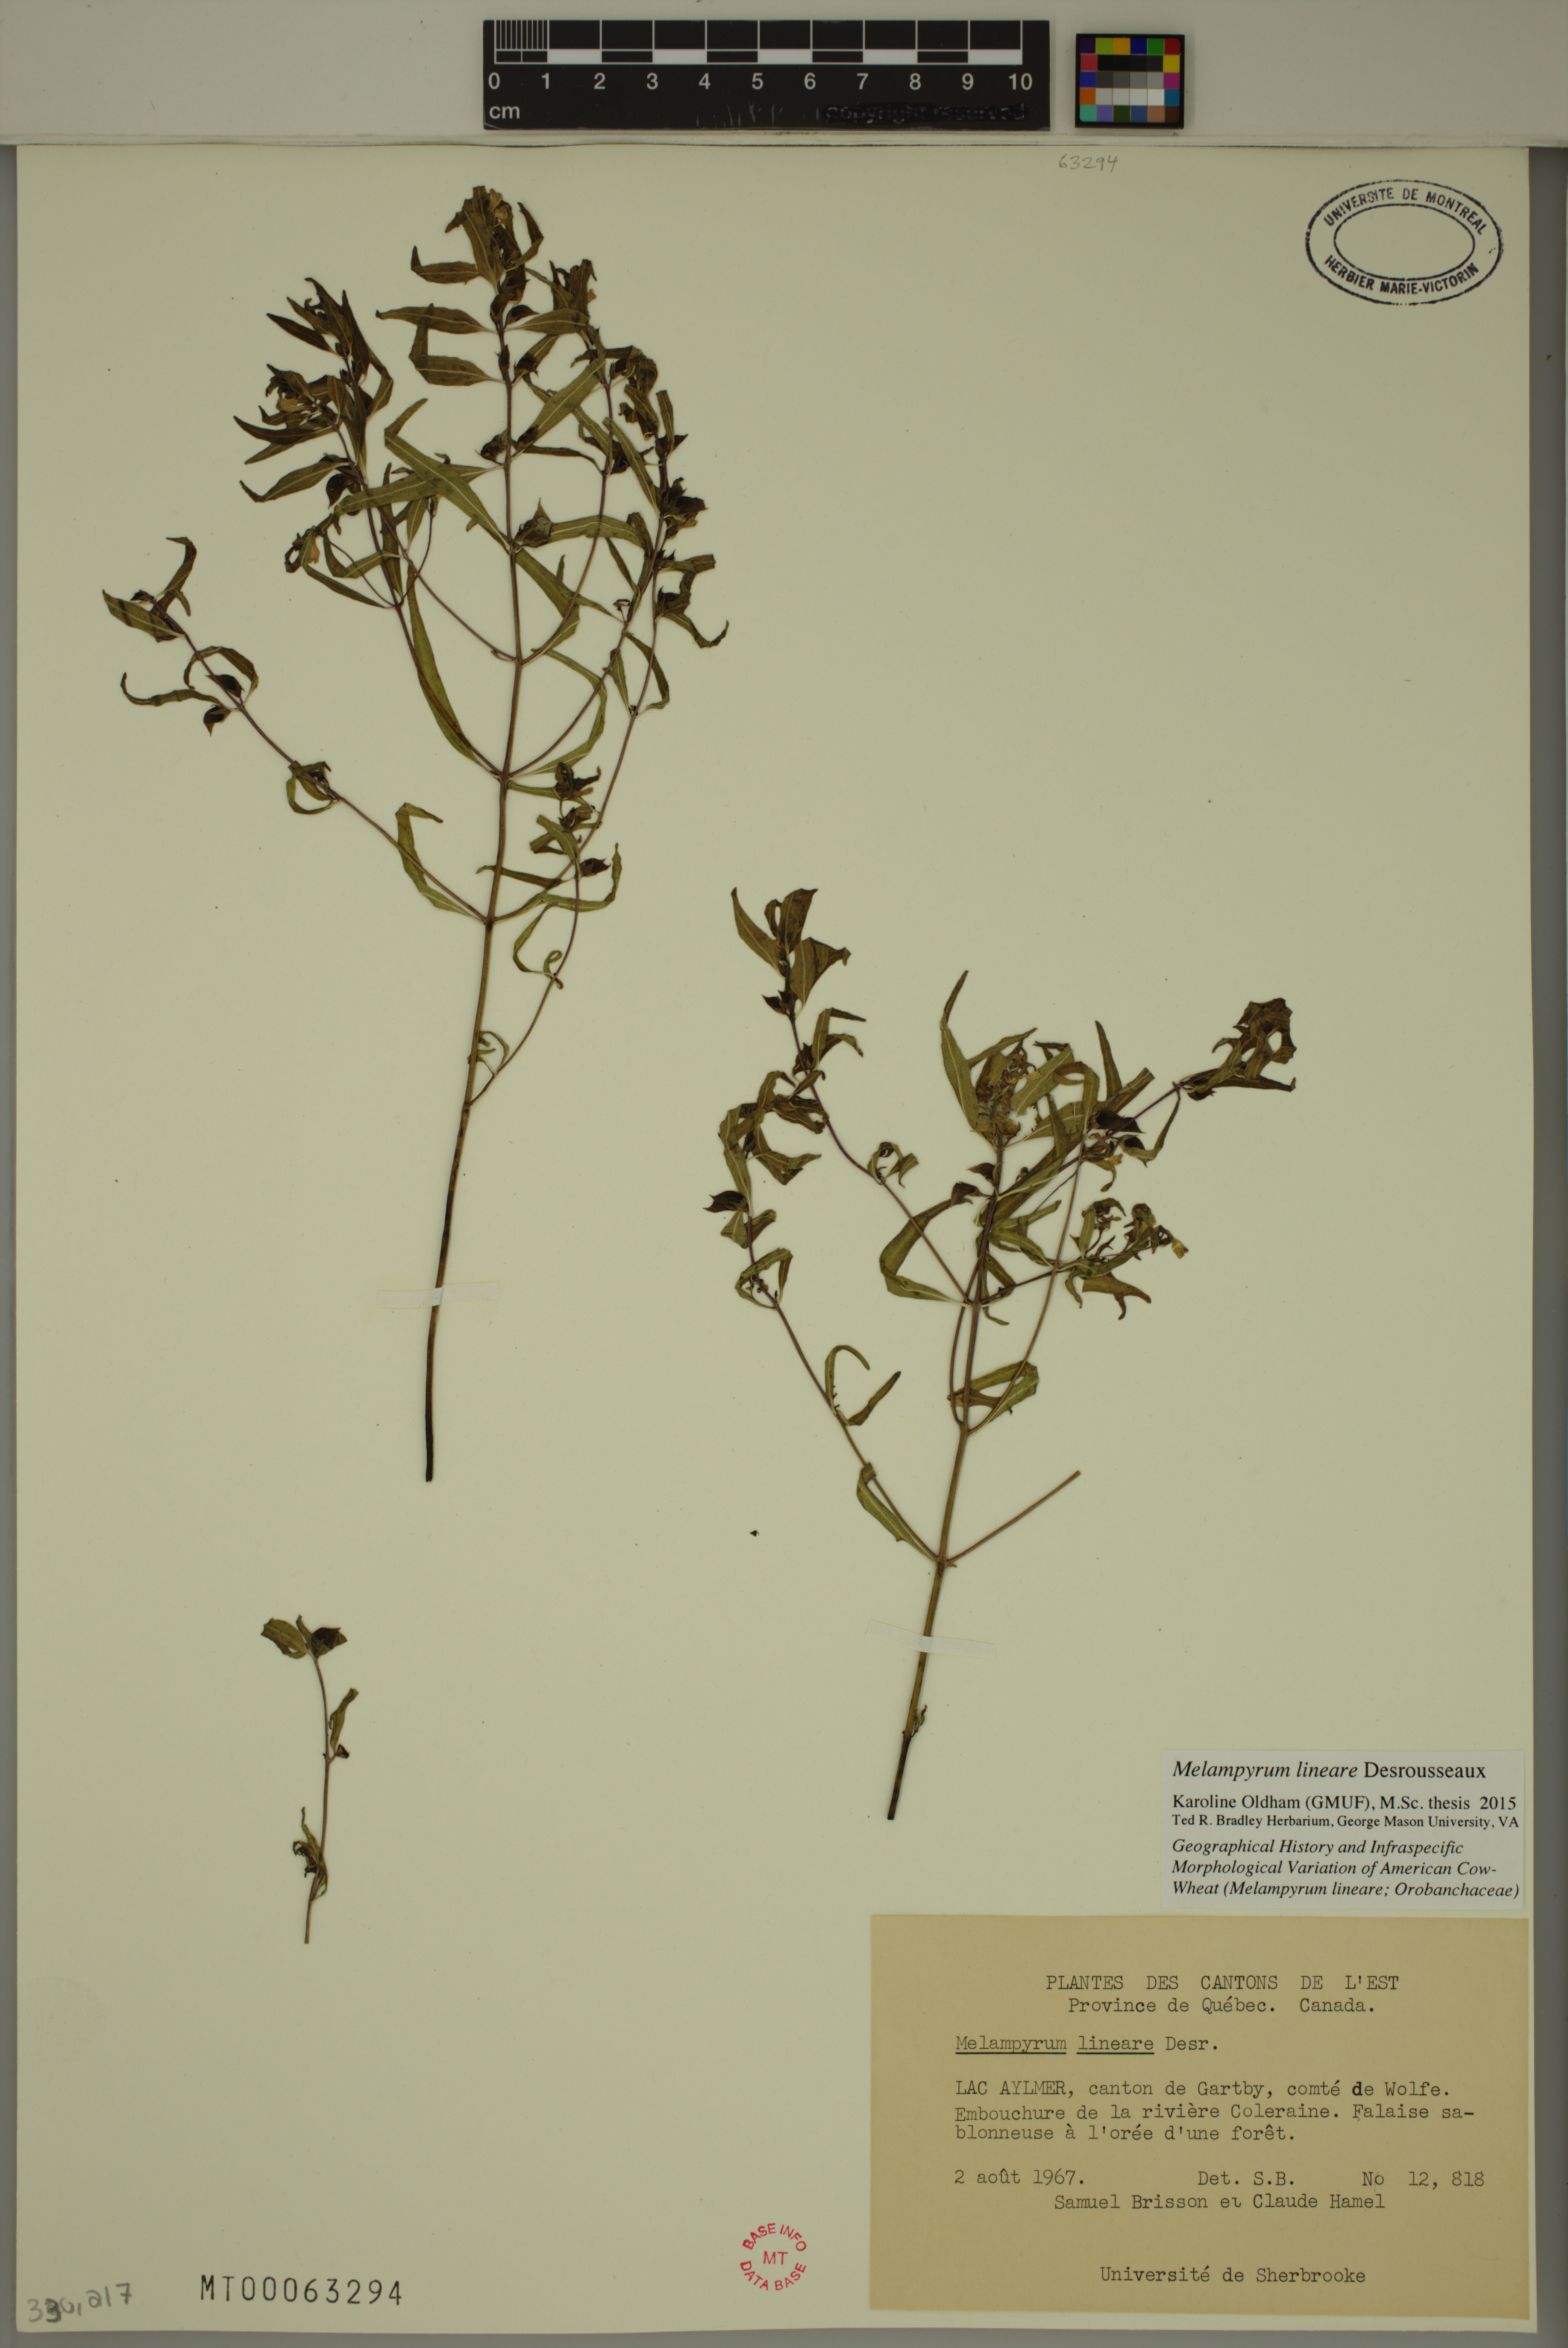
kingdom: Plantae
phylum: Tracheophyta
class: Magnoliopsida
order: Lamiales
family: Orobanchaceae
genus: Melampyrum
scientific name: Melampyrum lineare
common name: American cow-wheat
